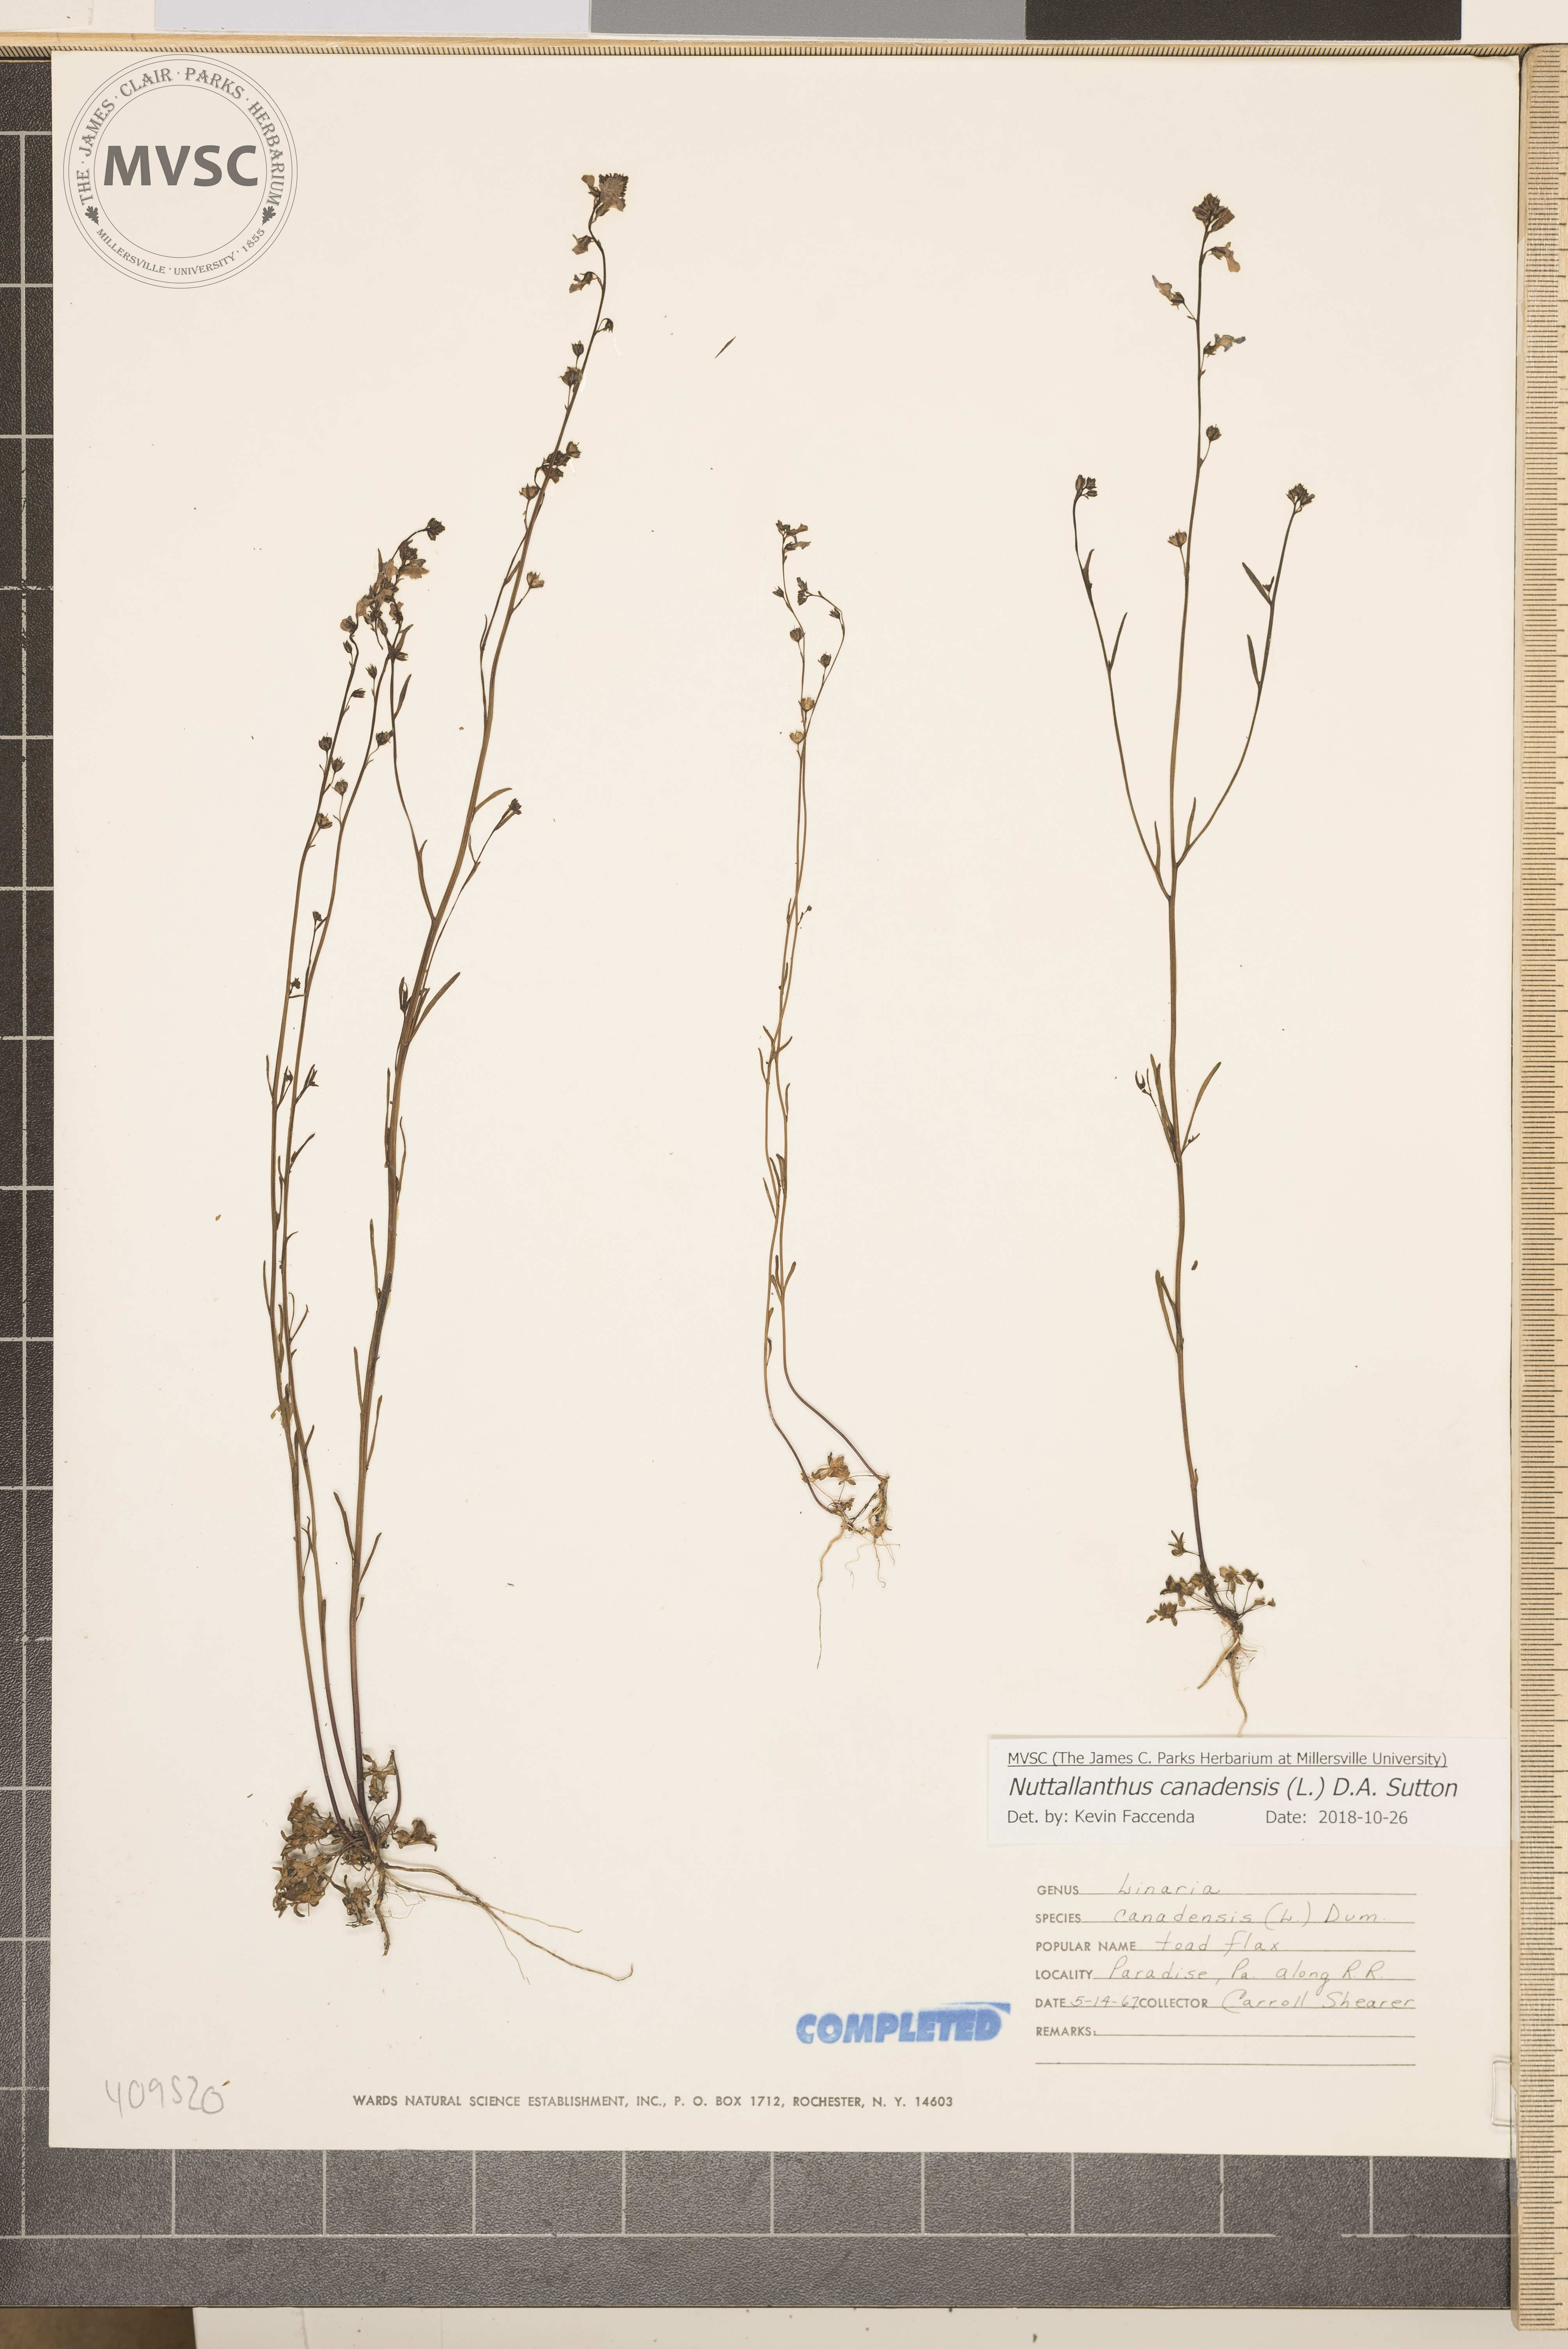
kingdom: Plantae
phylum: Tracheophyta
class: Magnoliopsida
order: Lamiales
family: Plantaginaceae
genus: Nuttallanthus
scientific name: Nuttallanthus canadensis
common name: Blue toadflax
